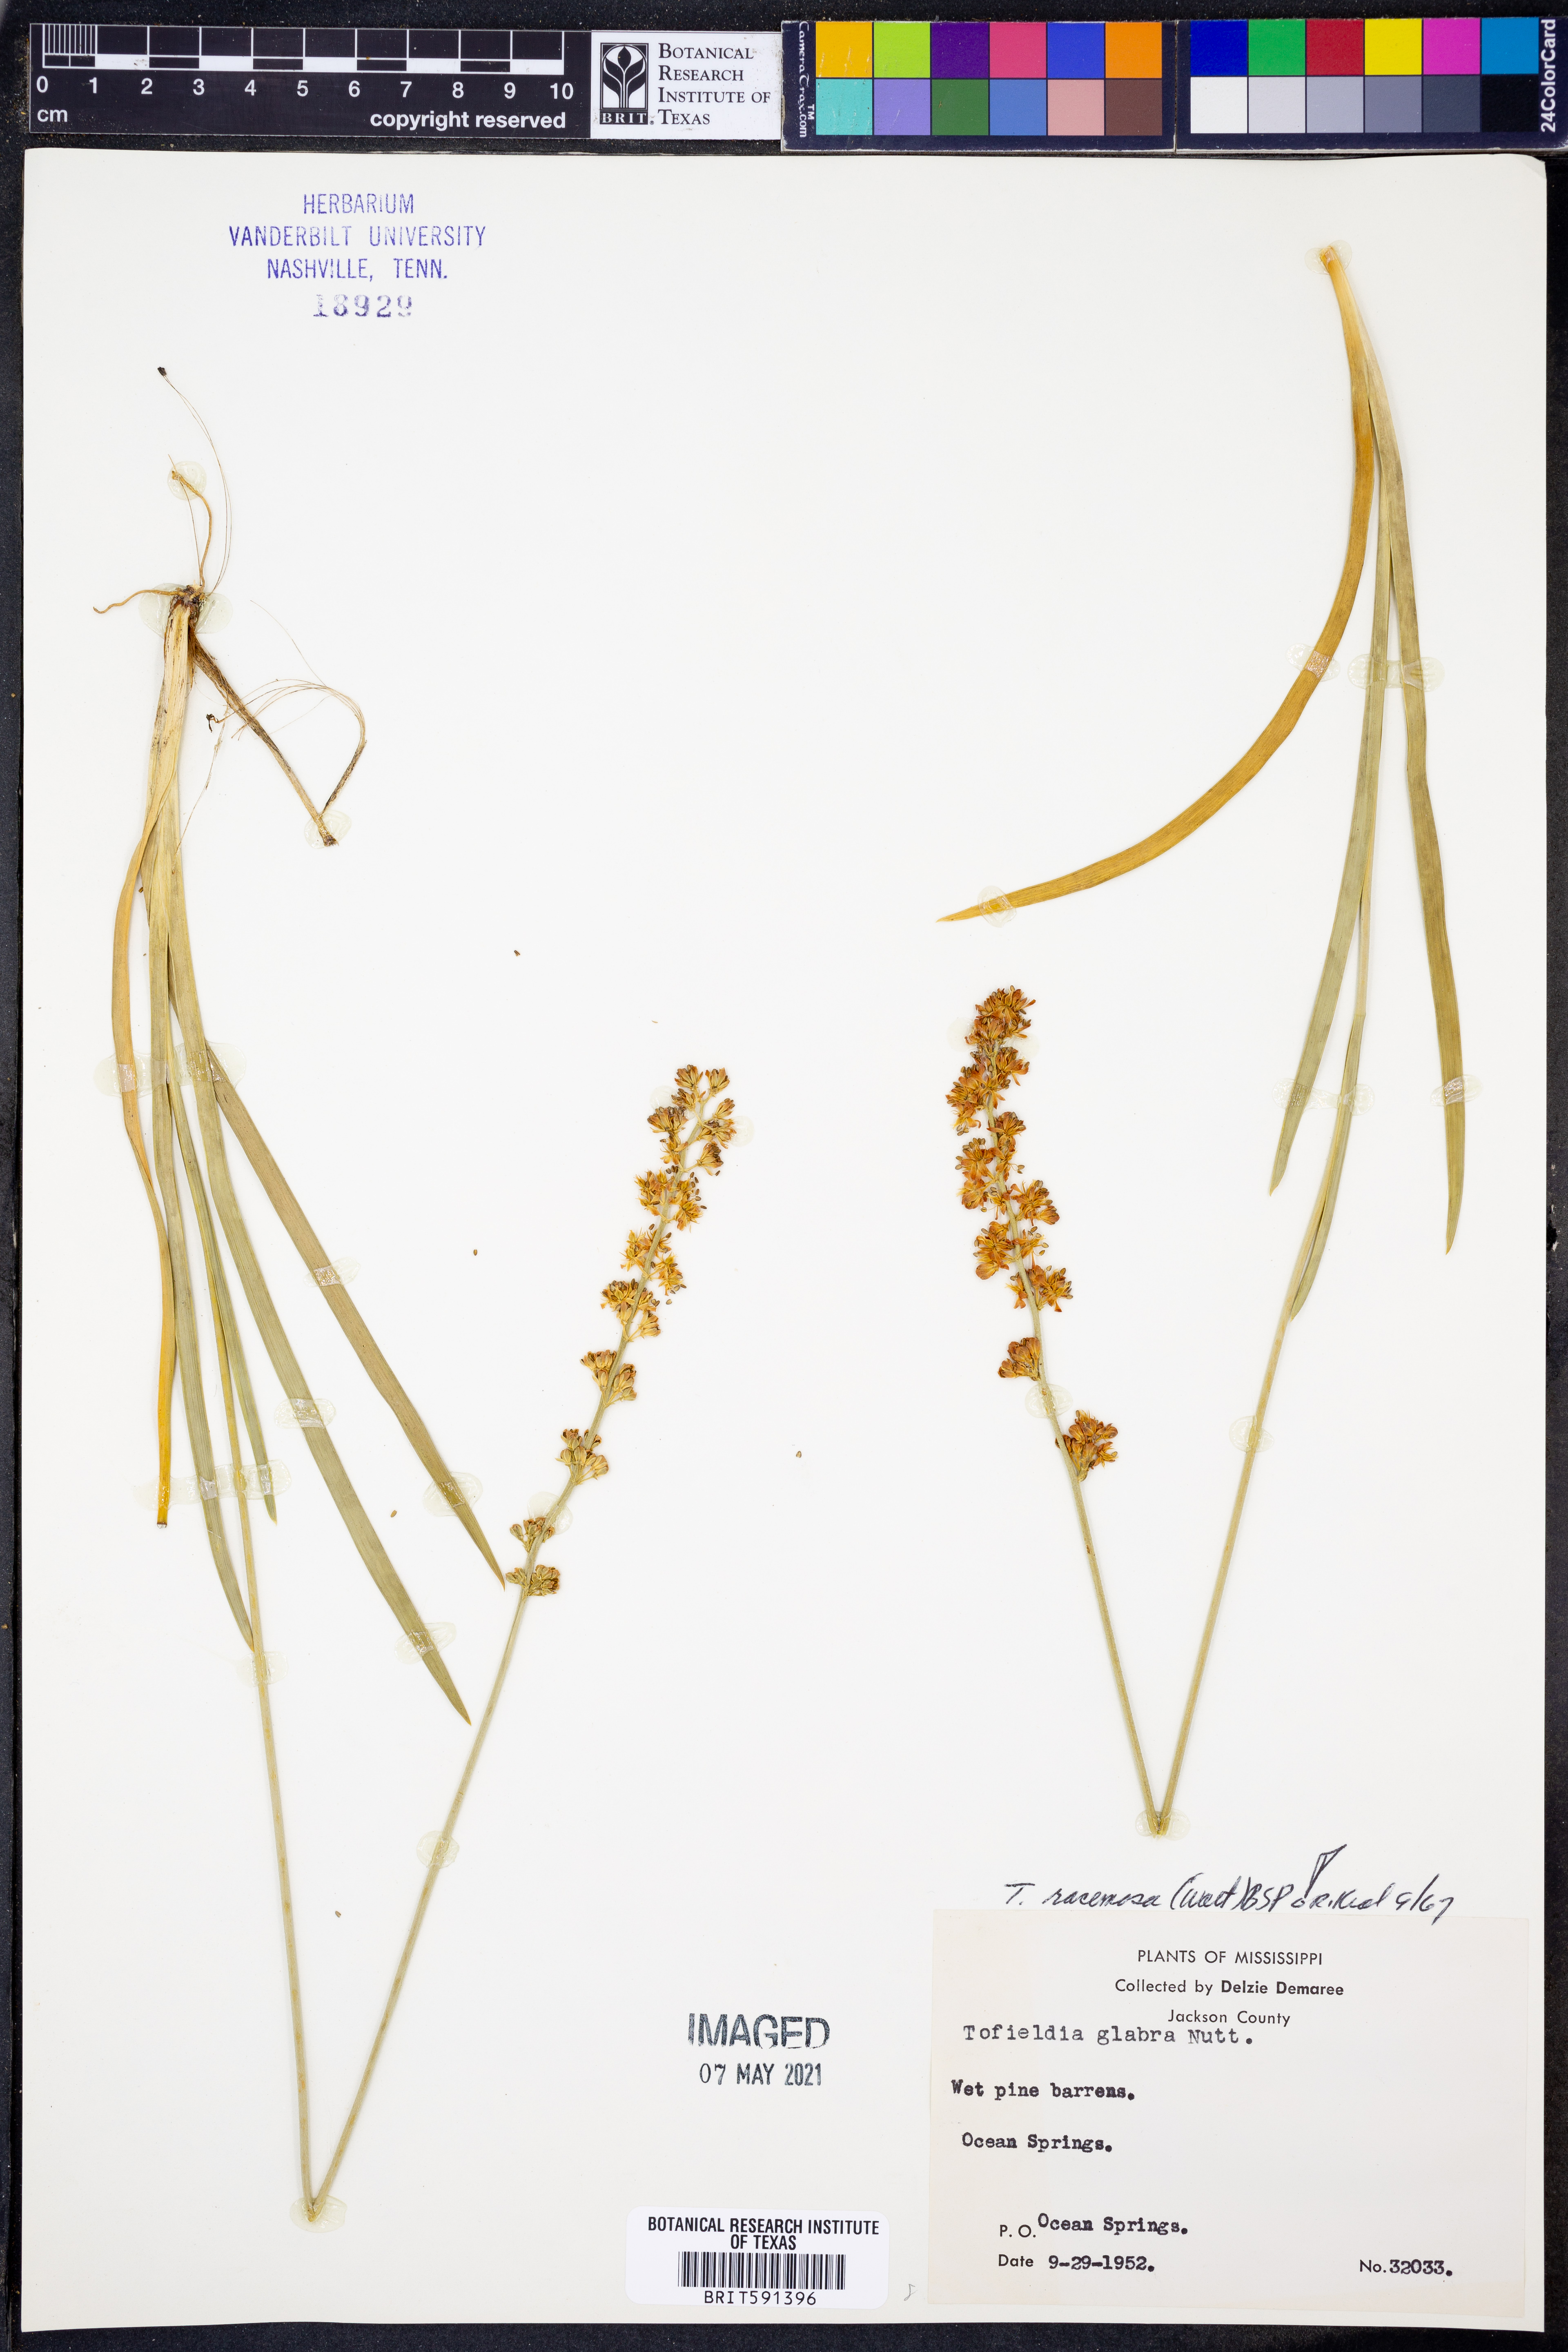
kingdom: Plantae
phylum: Tracheophyta
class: Liliopsida
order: Alismatales
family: Tofieldiaceae
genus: Triantha
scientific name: Triantha racemosa
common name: Coastal false asphodel
